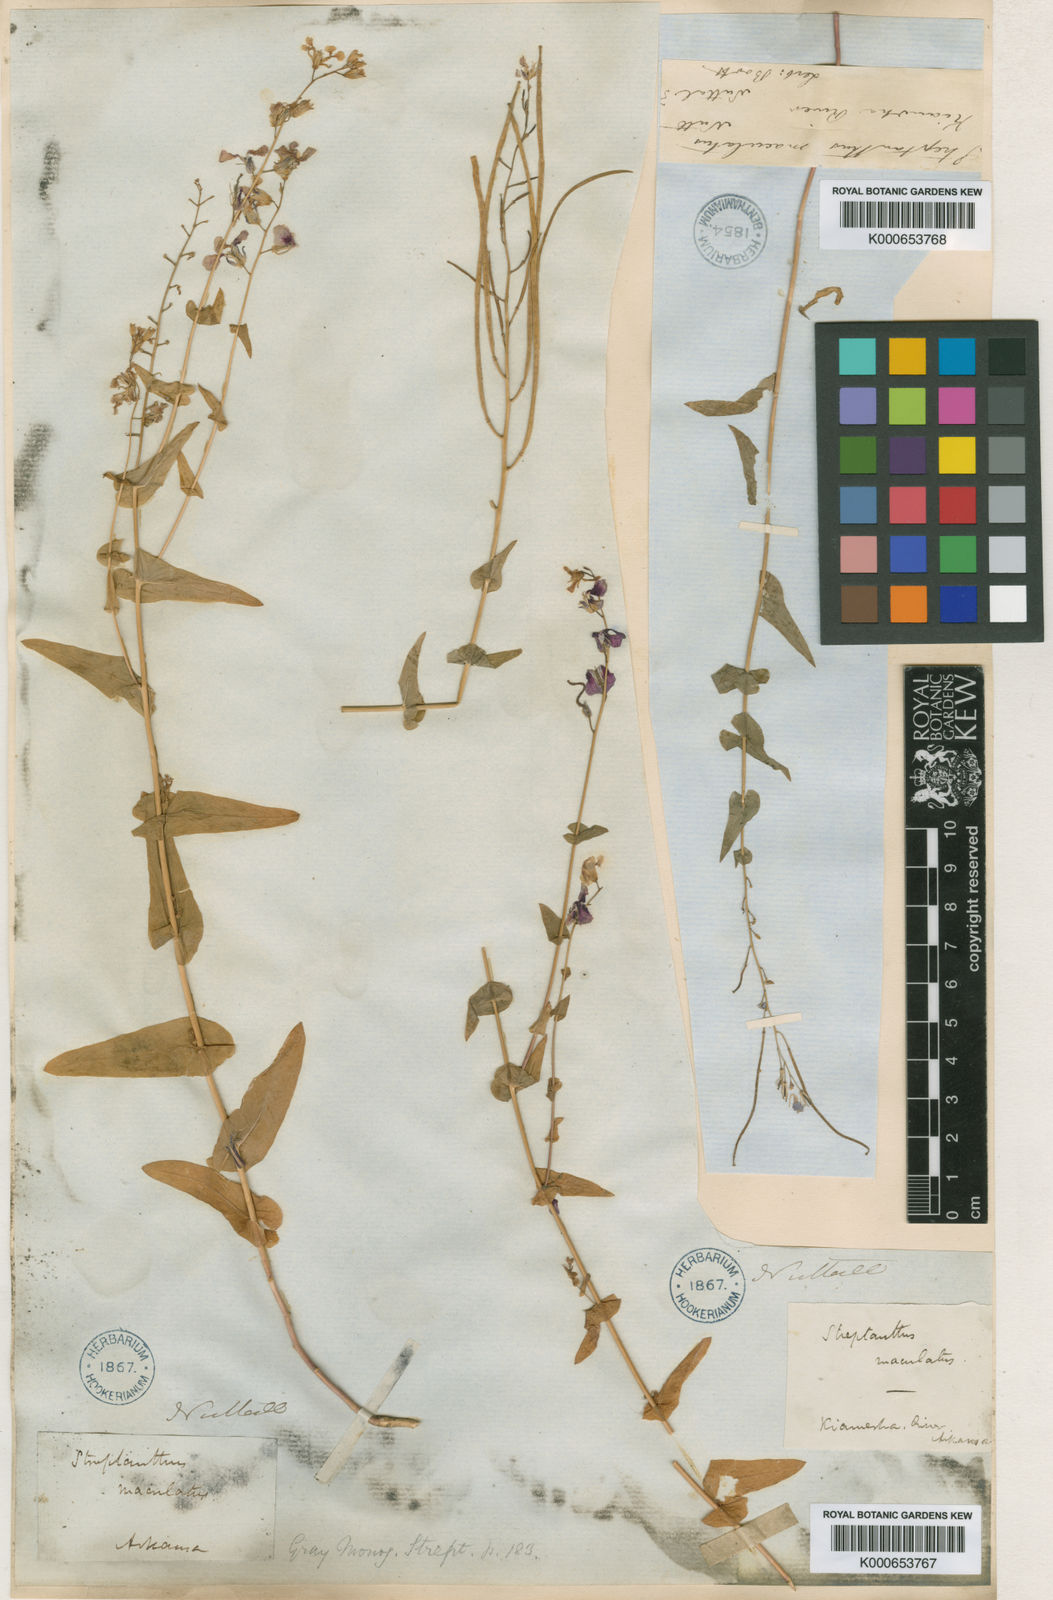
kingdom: Plantae
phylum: Tracheophyta
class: Magnoliopsida
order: Brassicales
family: Brassicaceae
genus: Streptanthus
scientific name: Streptanthus maculatus
